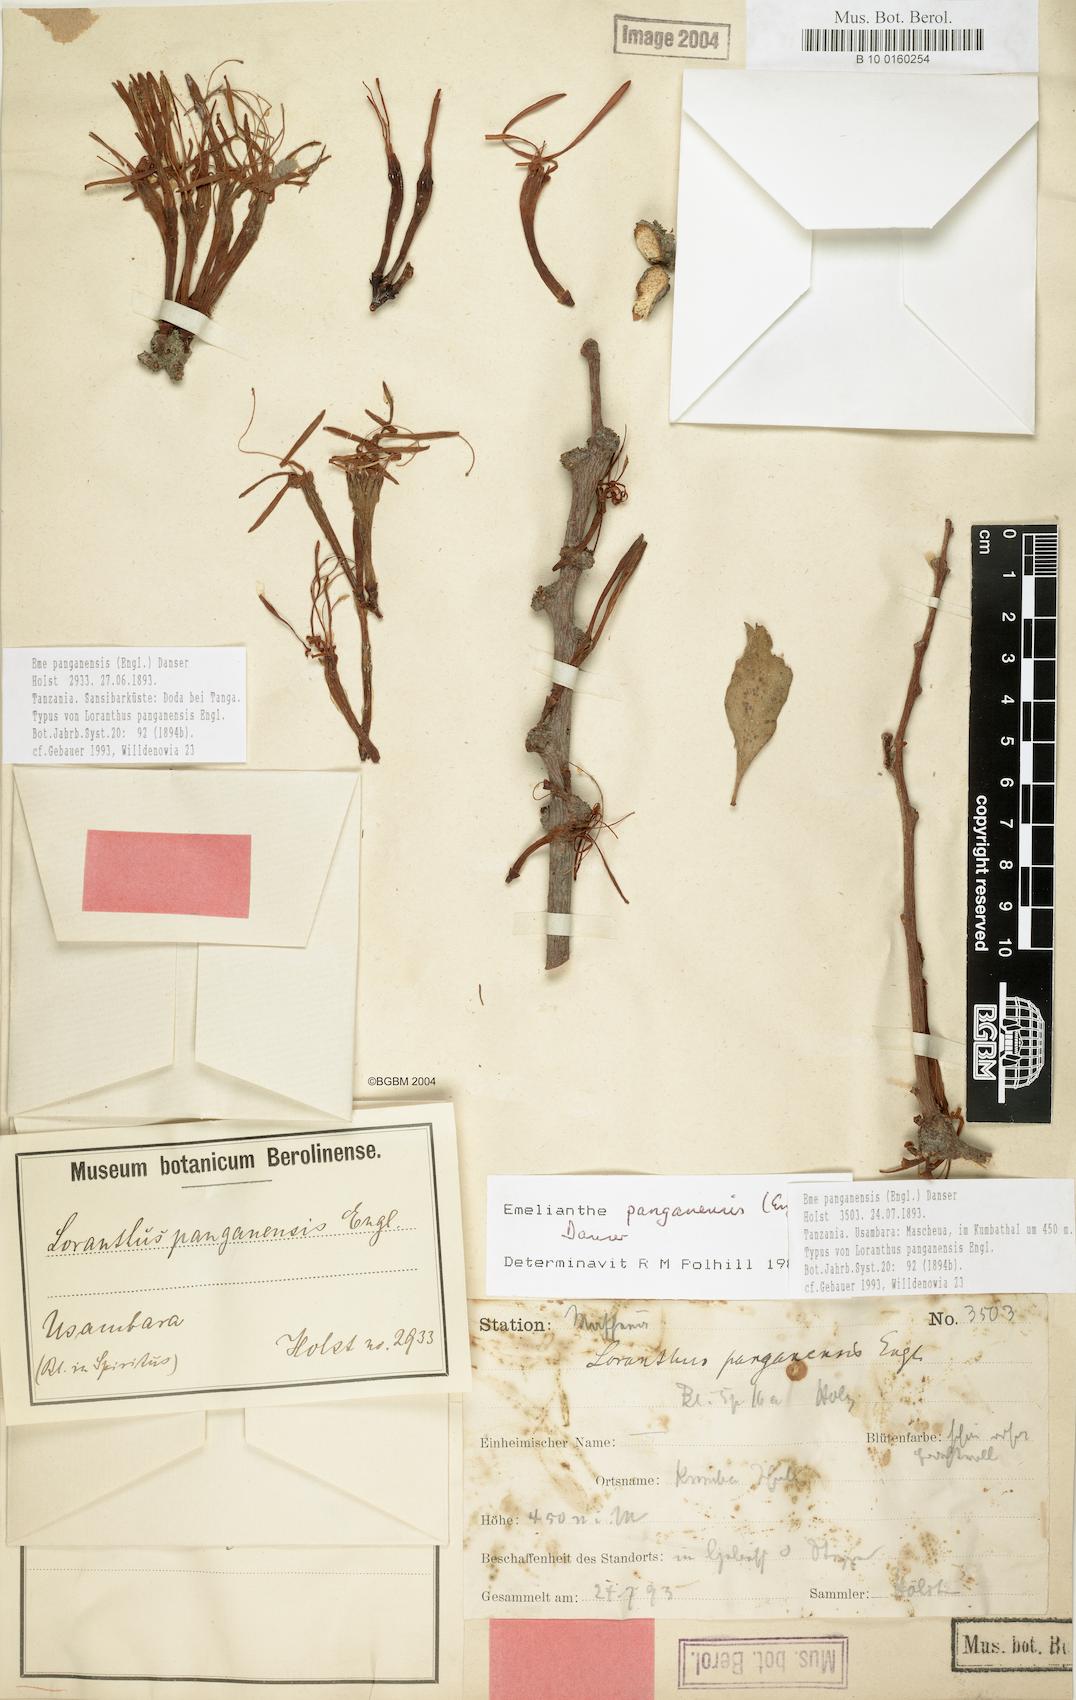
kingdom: Plantae
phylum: Tracheophyta
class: Magnoliopsida
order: Santalales
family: Loranthaceae
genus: Emelianthe
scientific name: Emelianthe panganensis
